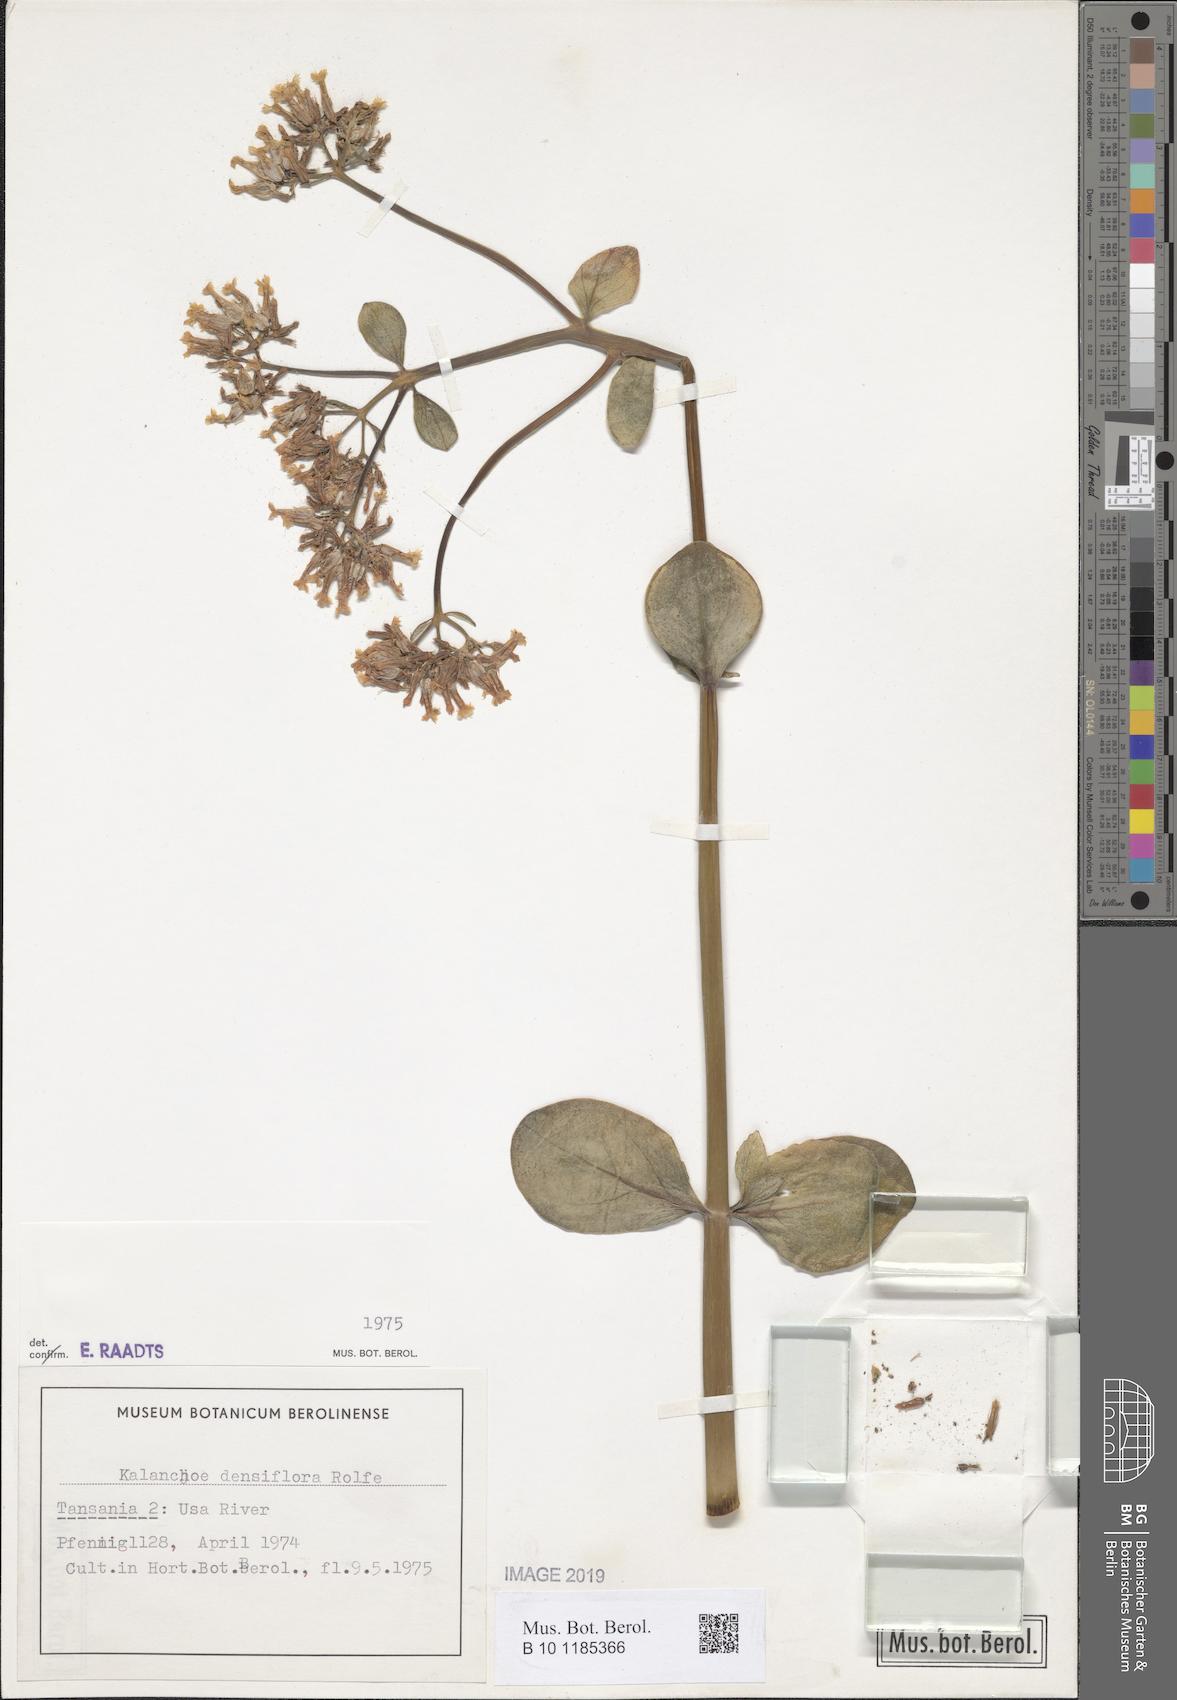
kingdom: Plantae
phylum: Tracheophyta
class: Magnoliopsida
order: Saxifragales
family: Crassulaceae
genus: Kalanchoe
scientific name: Kalanchoe densiflora
